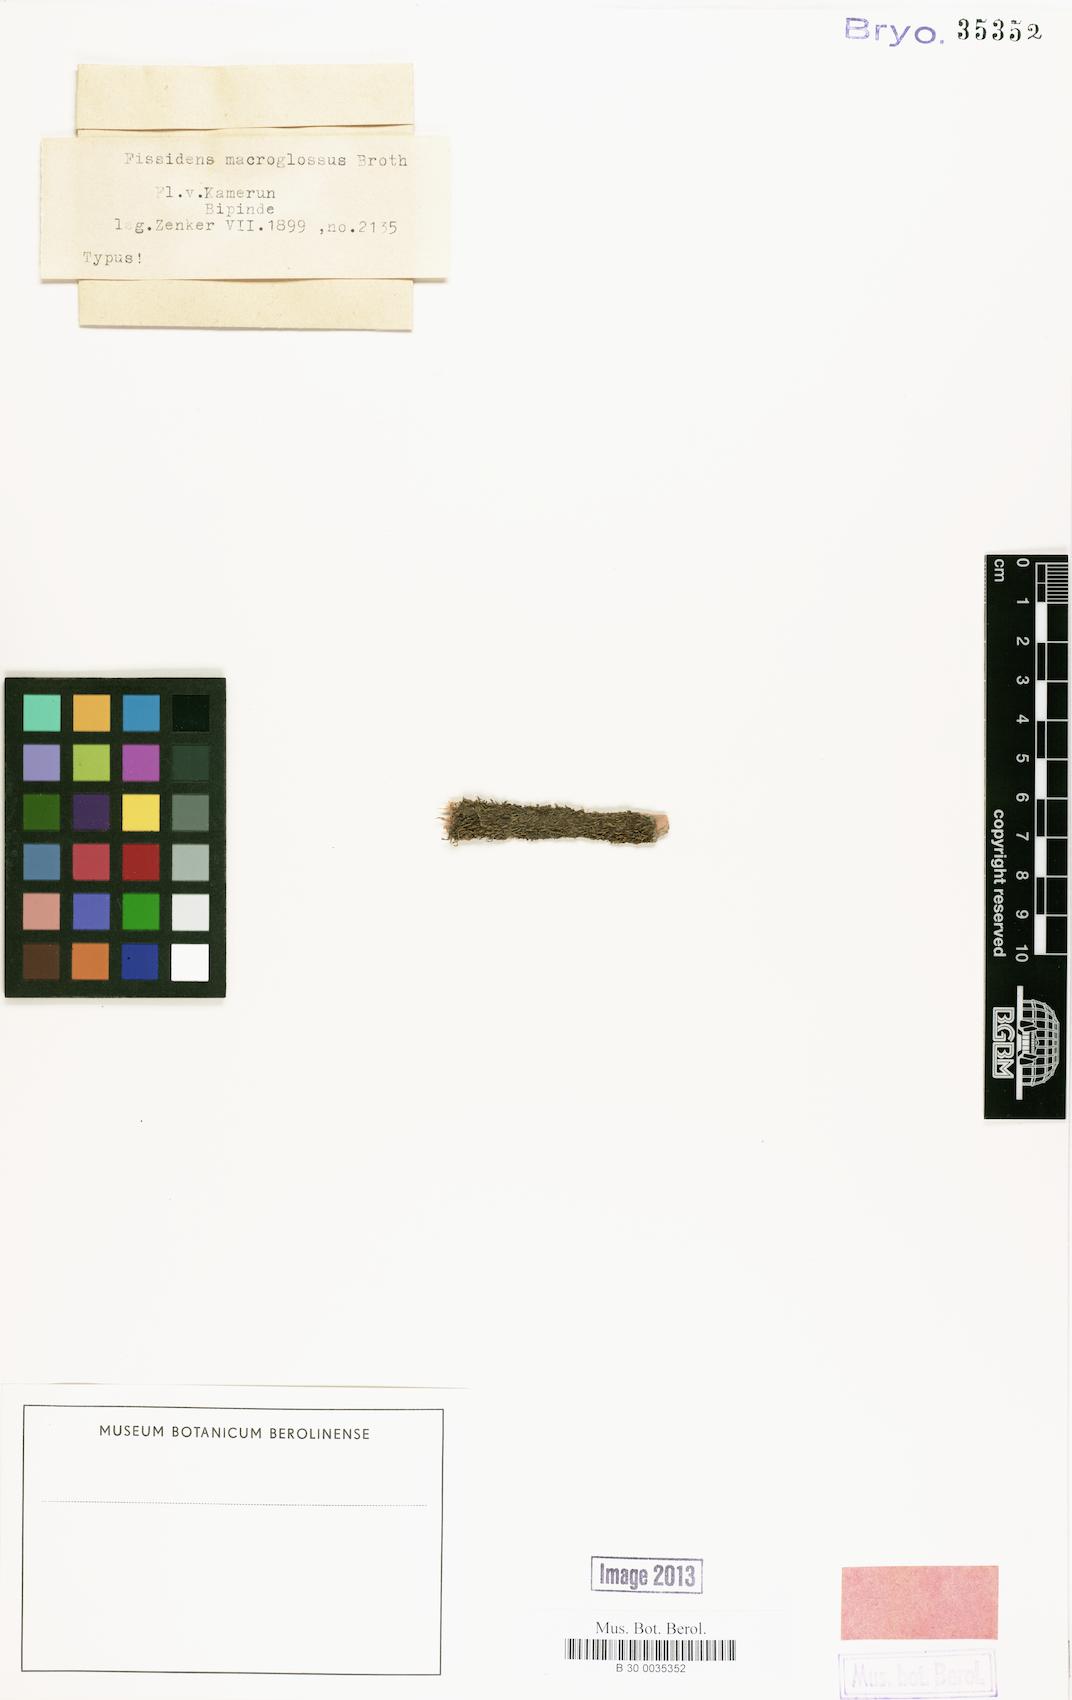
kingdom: Plantae
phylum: Bryophyta
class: Bryopsida
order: Dicranales
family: Fissidentaceae
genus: Fissidens
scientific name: Fissidens macroglossus
